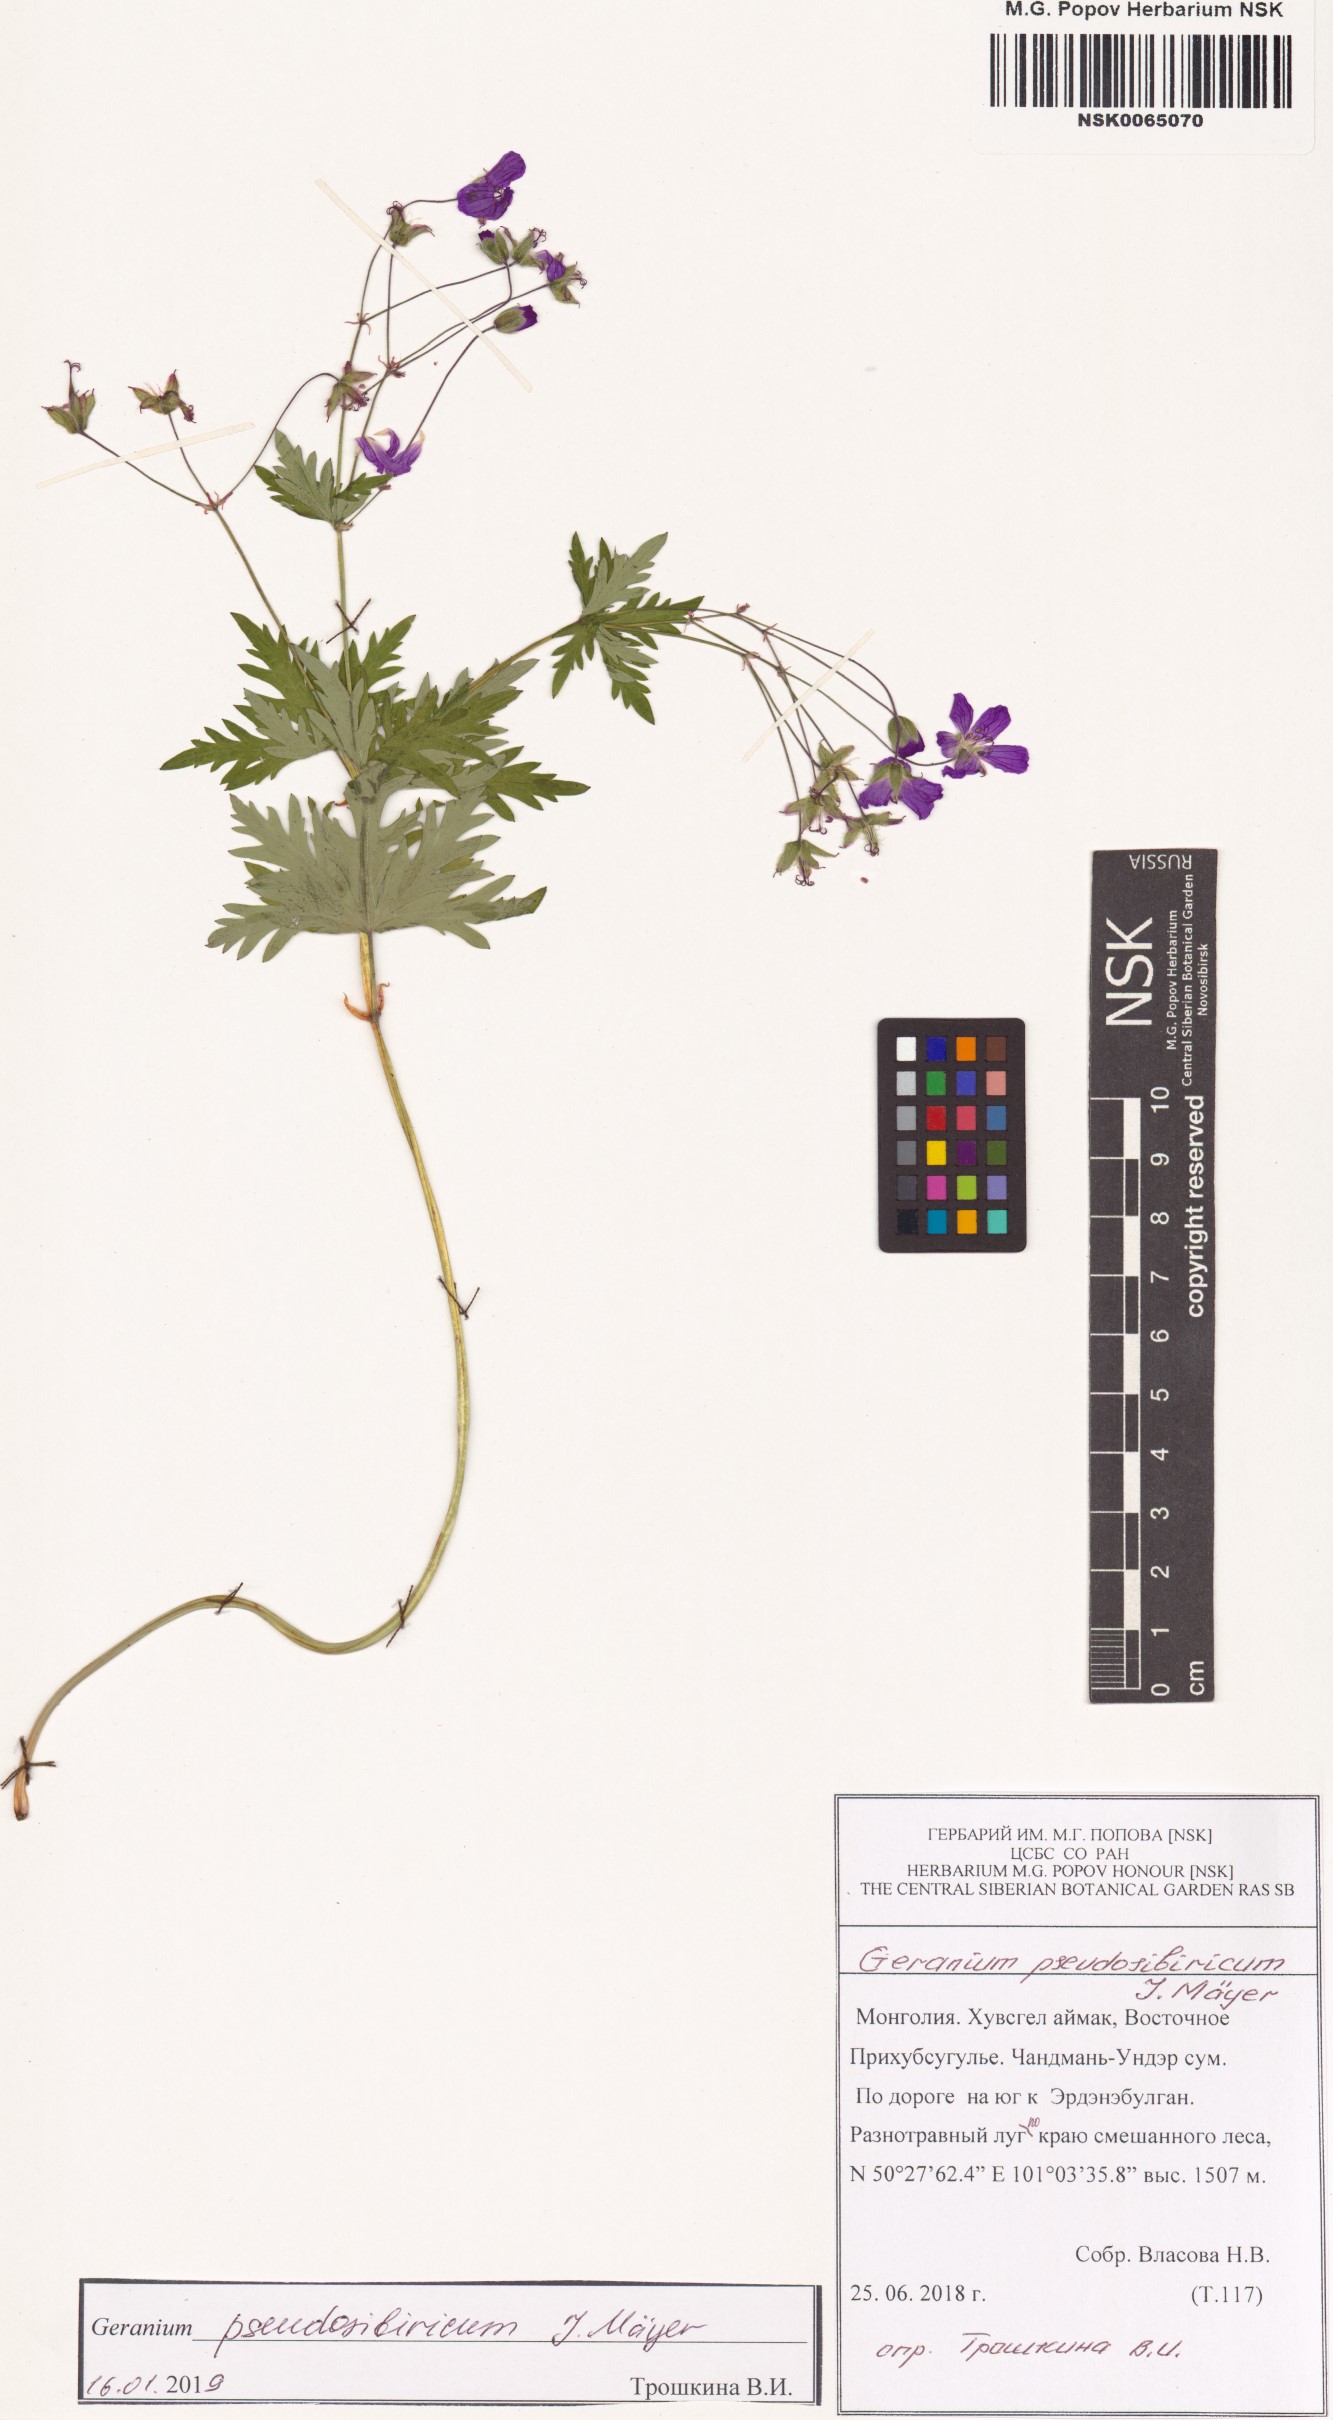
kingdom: Plantae
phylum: Tracheophyta
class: Magnoliopsida
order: Geraniales
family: Geraniaceae
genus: Geranium
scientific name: Geranium pseudosibiricum
